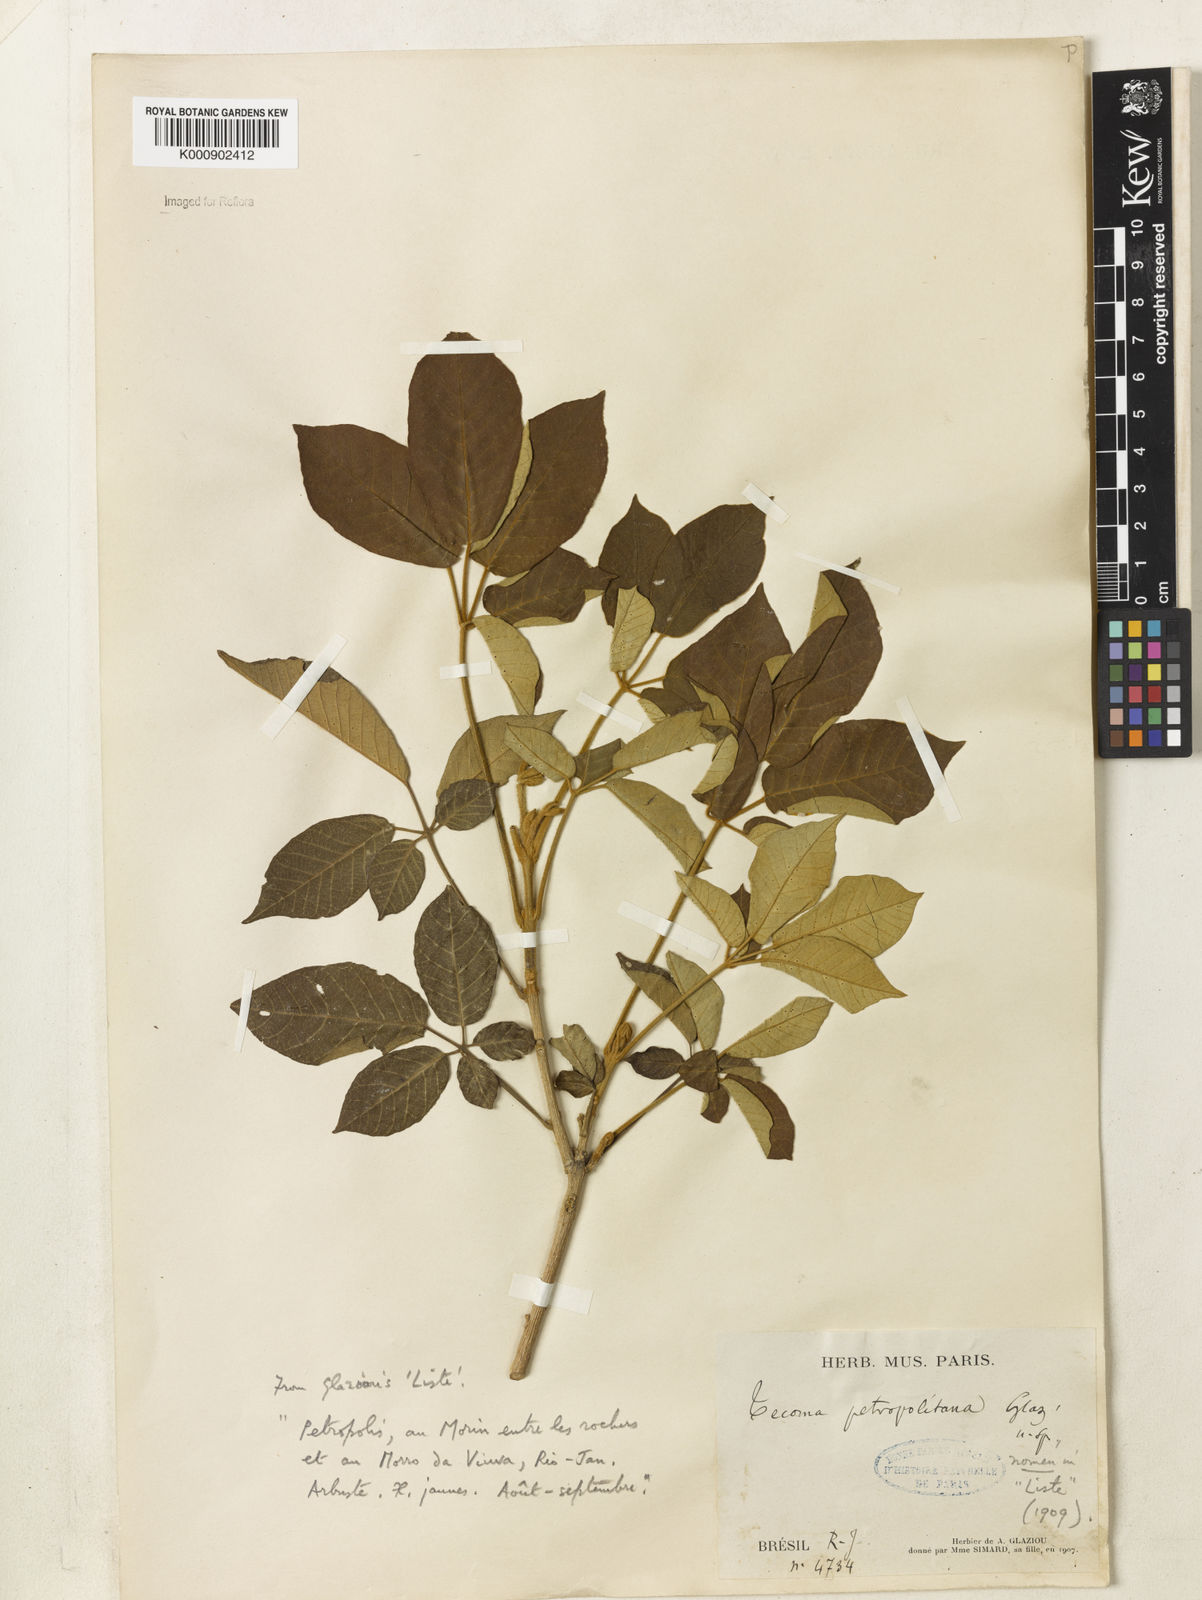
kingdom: Plantae
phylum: Tracheophyta
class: Magnoliopsida
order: Lamiales
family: Bignoniaceae
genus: Handroanthus
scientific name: Handroanthus ochraceus
